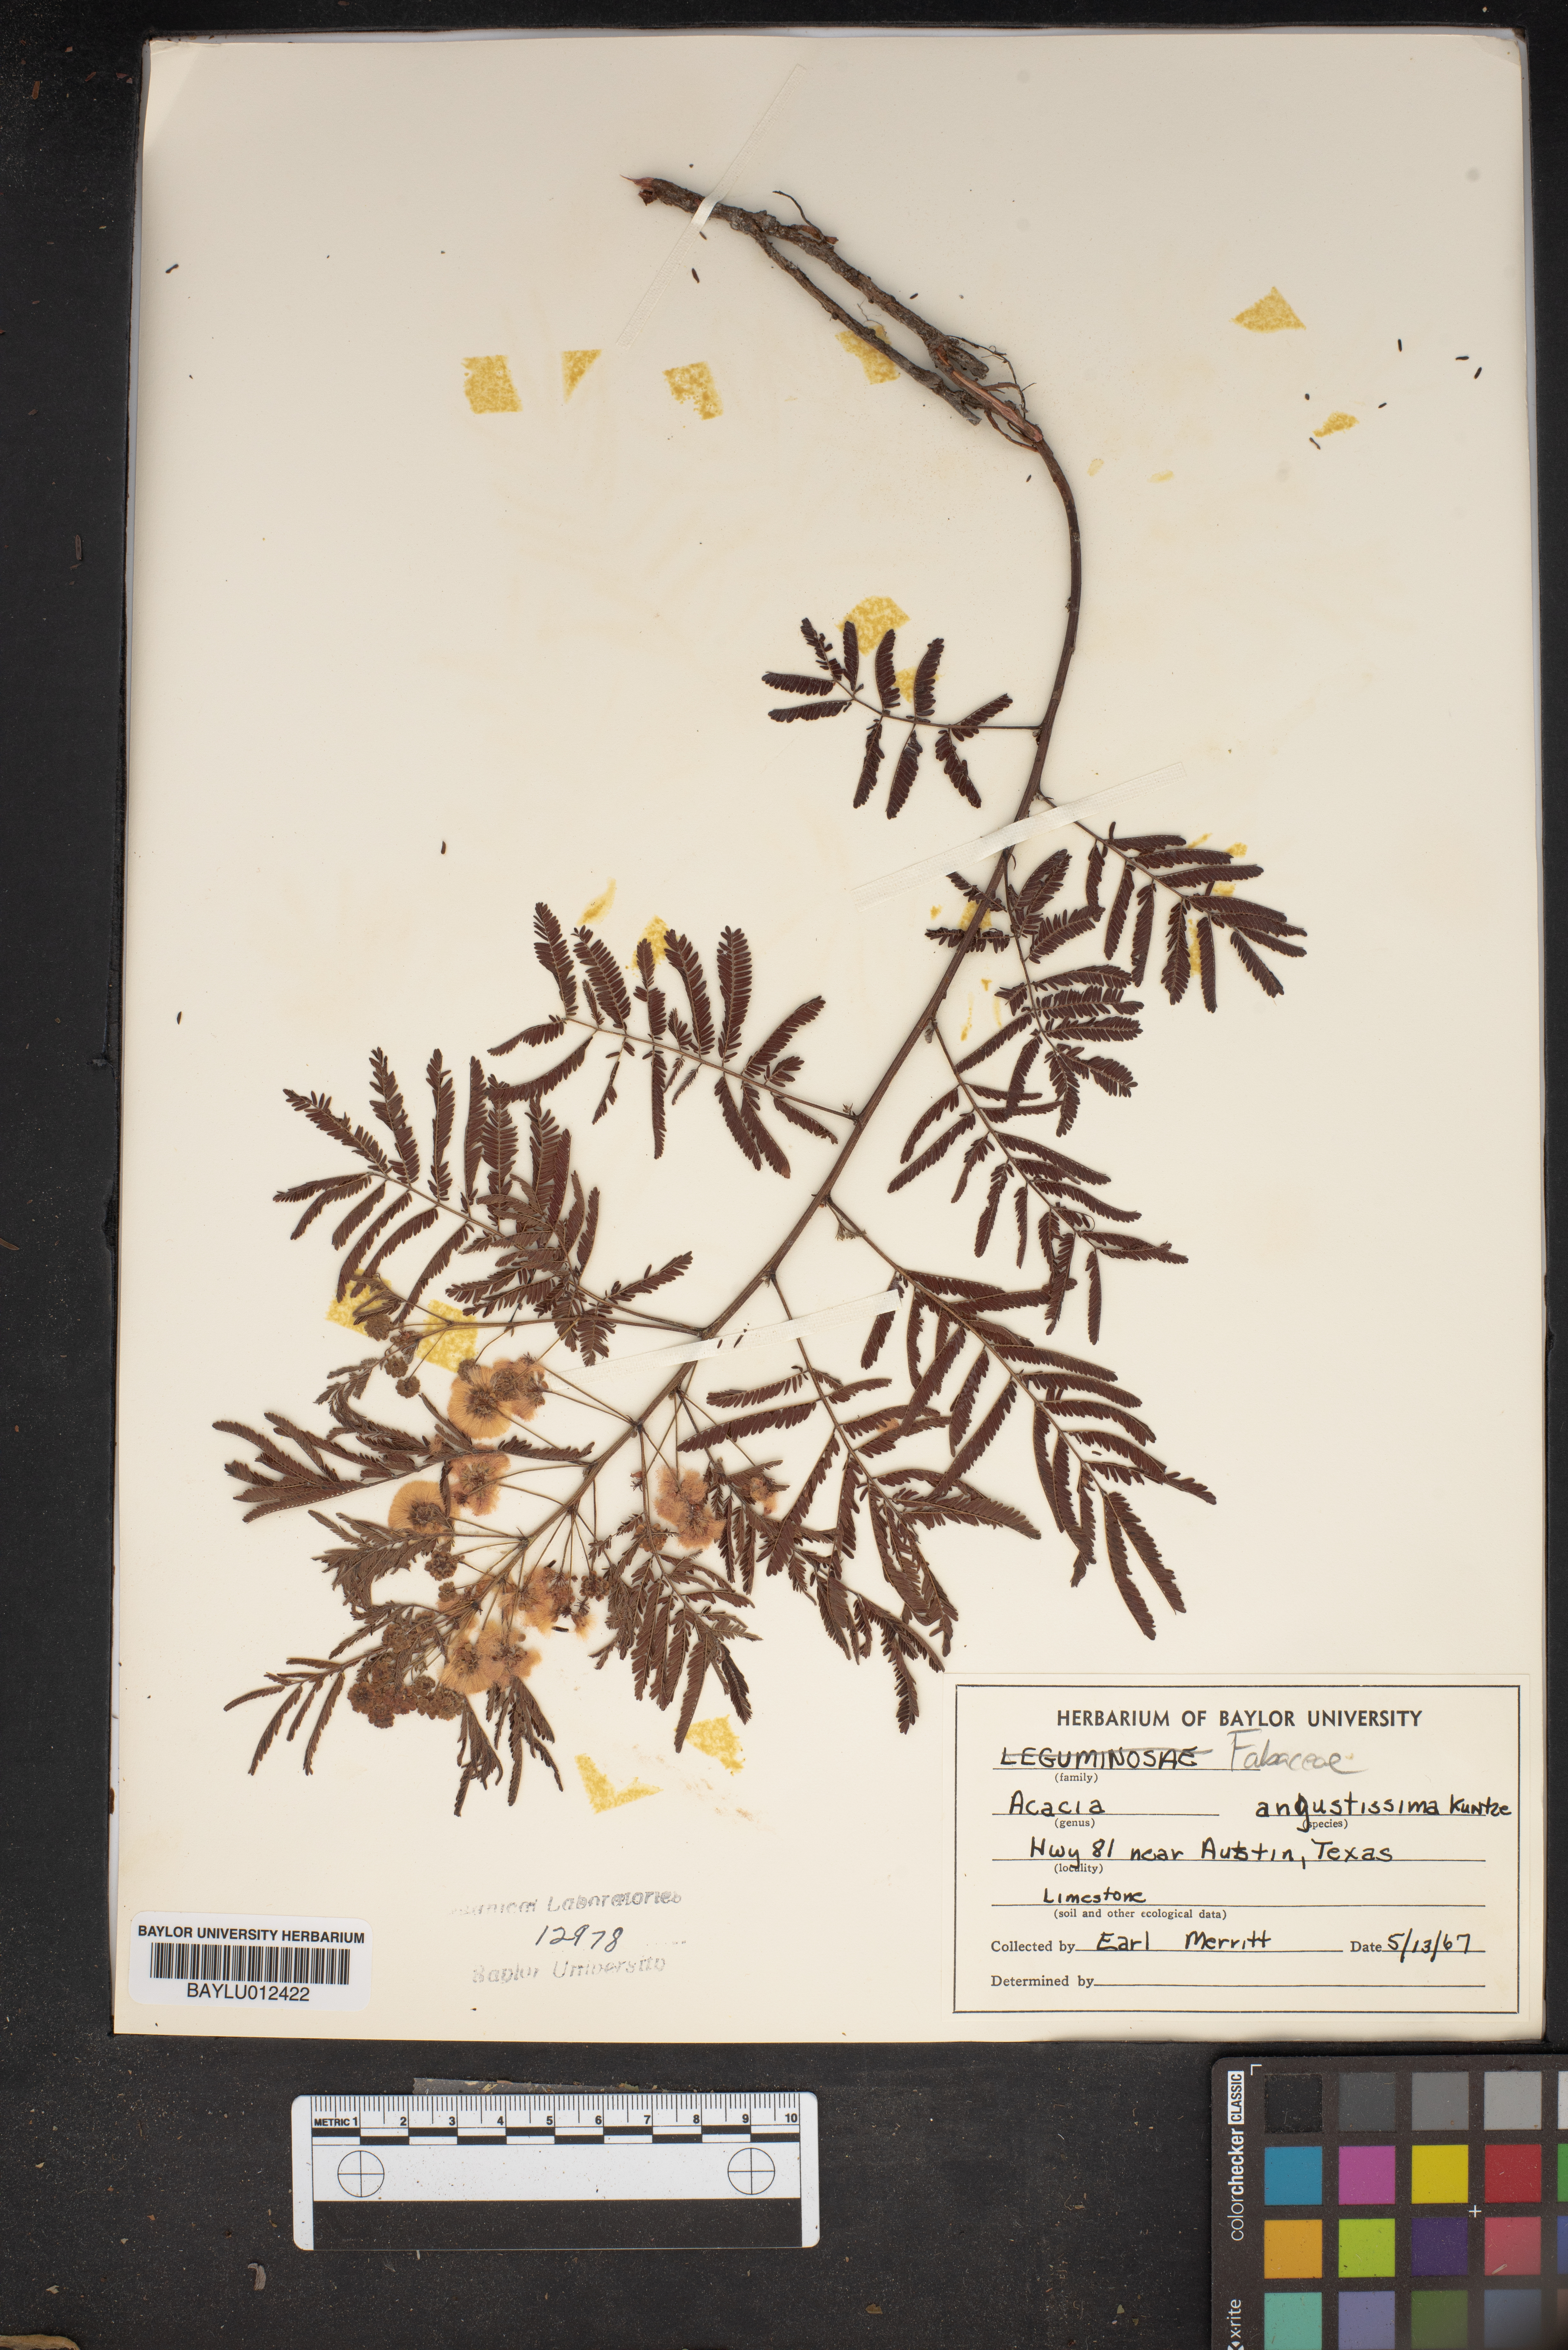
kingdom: Plantae
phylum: Tracheophyta
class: Magnoliopsida
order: Fabales
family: Fabaceae
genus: Acaciella
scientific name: Acaciella angustissima
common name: Prairie acacia
